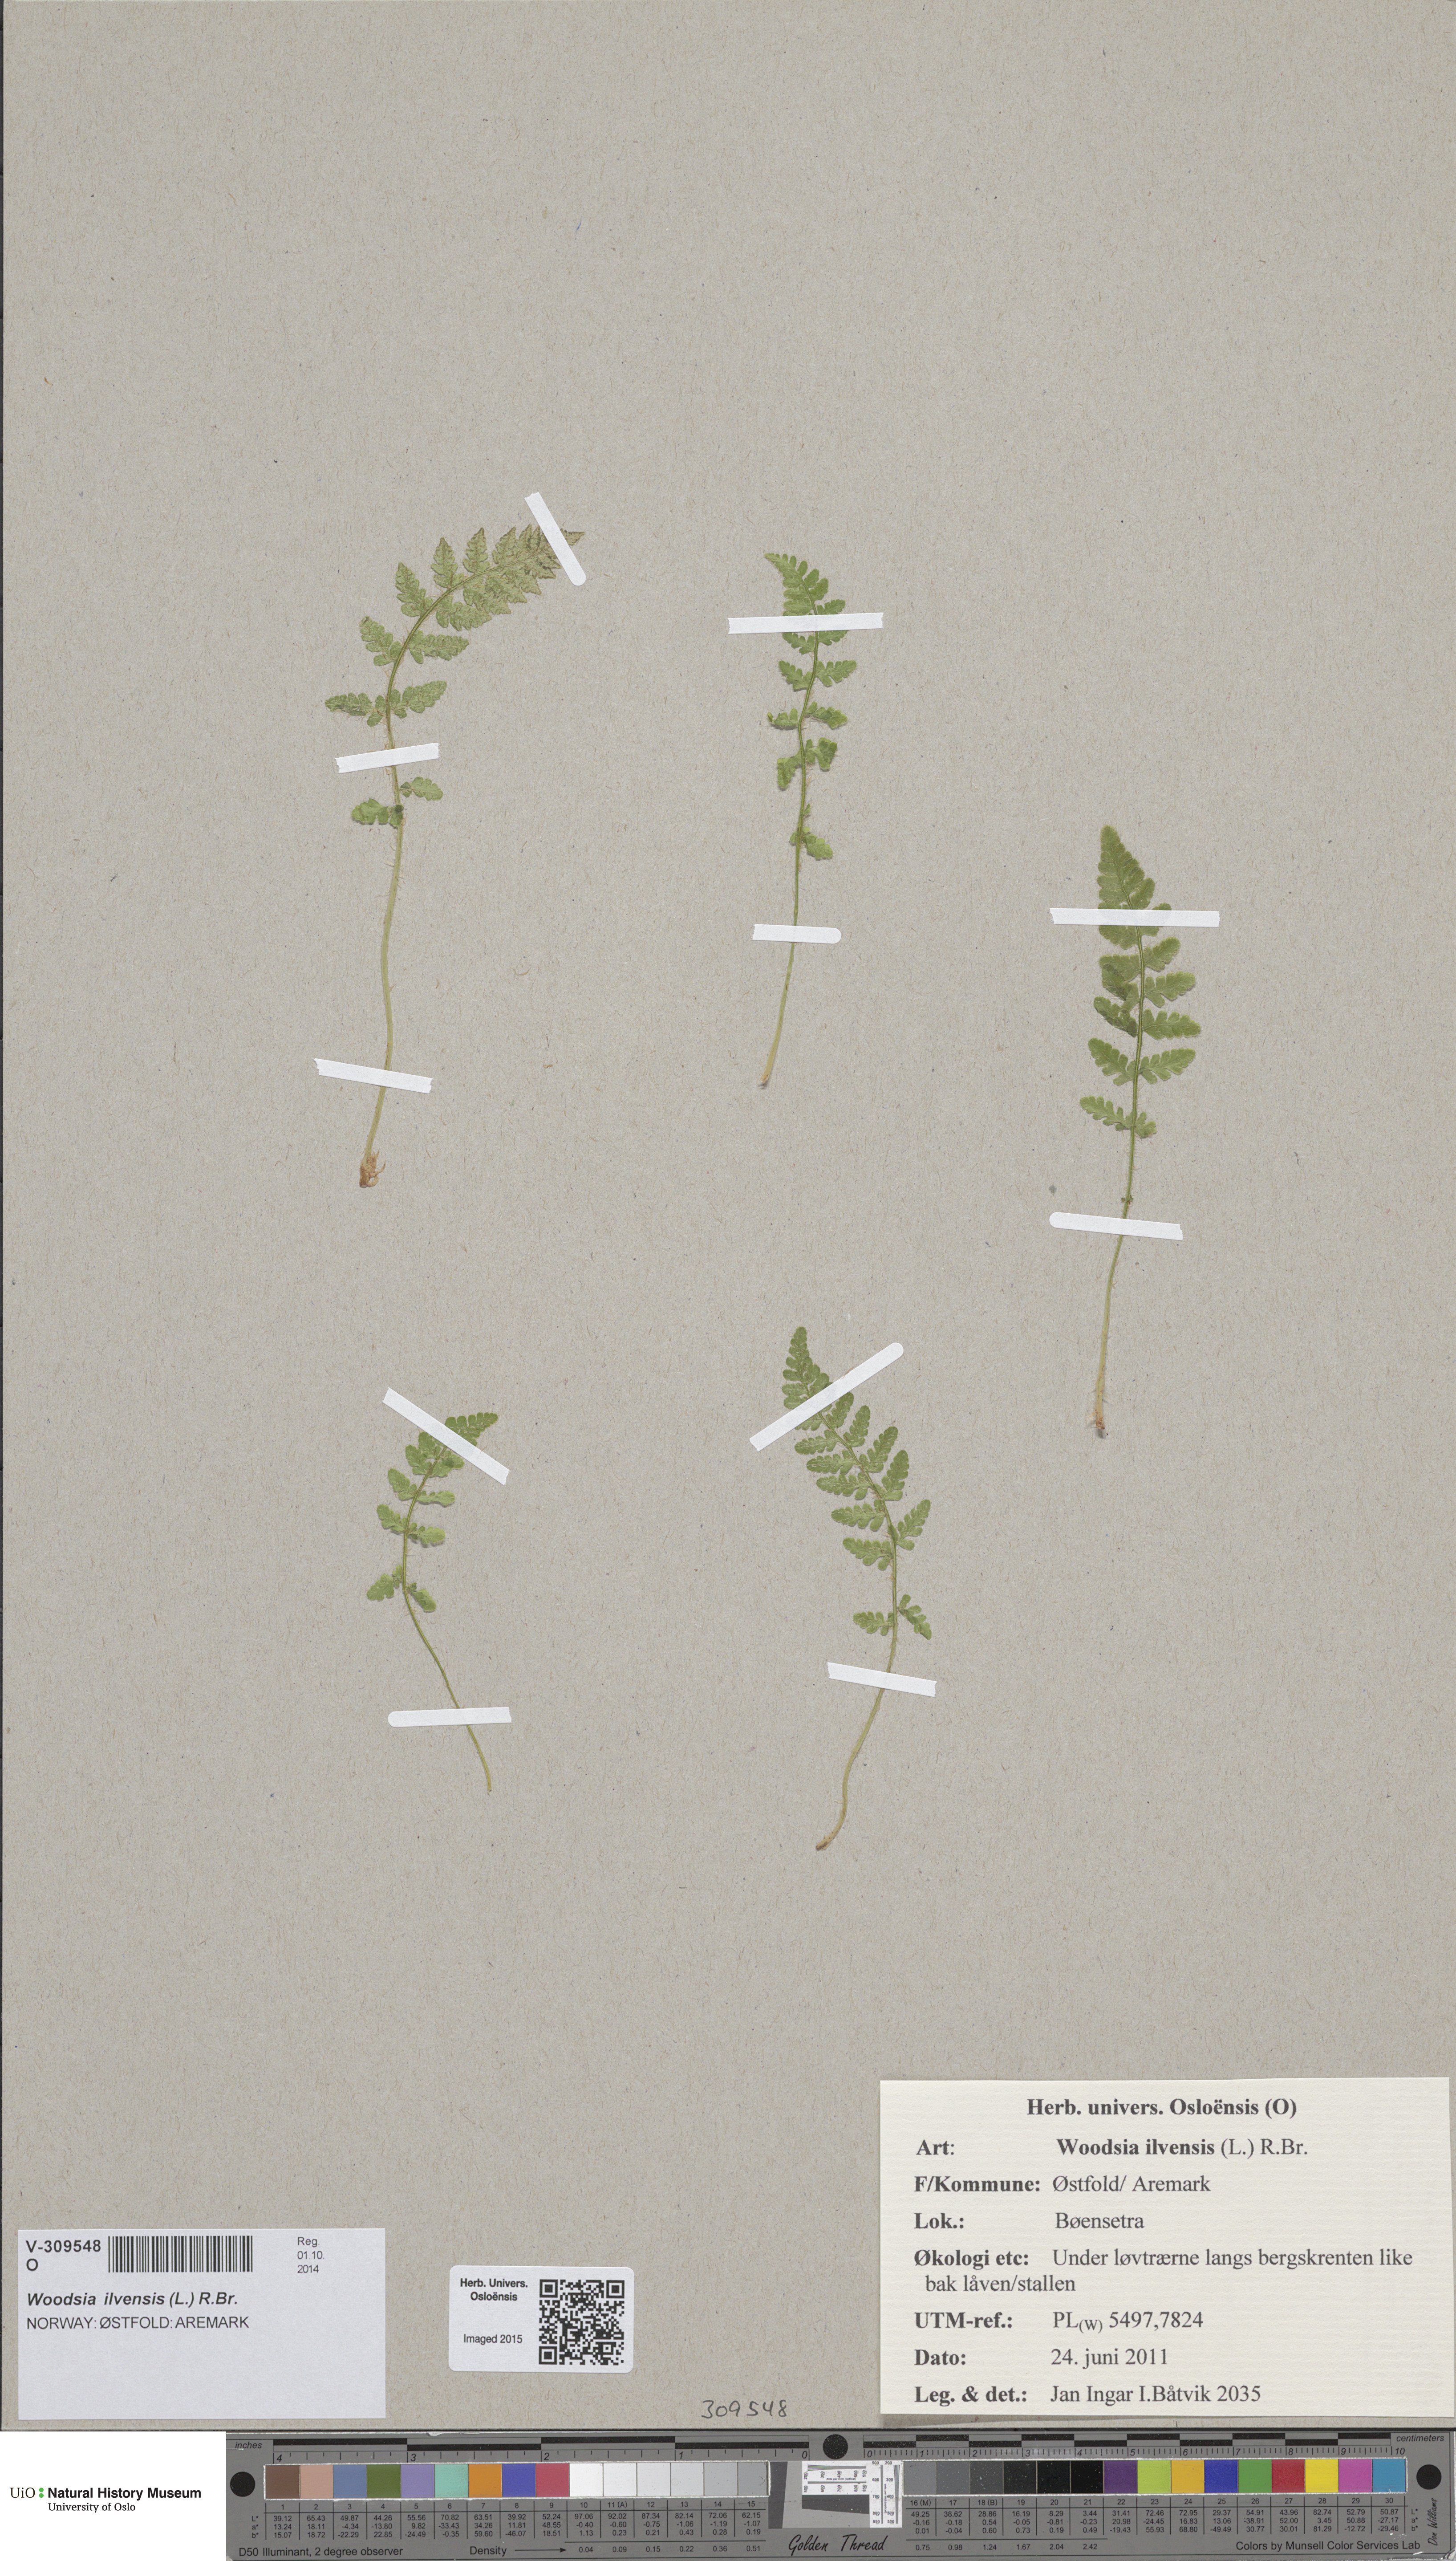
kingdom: Plantae
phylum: Tracheophyta
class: Polypodiopsida
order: Polypodiales
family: Woodsiaceae
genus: Woodsia
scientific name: Woodsia ilvensis
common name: Fragrant woodsia
